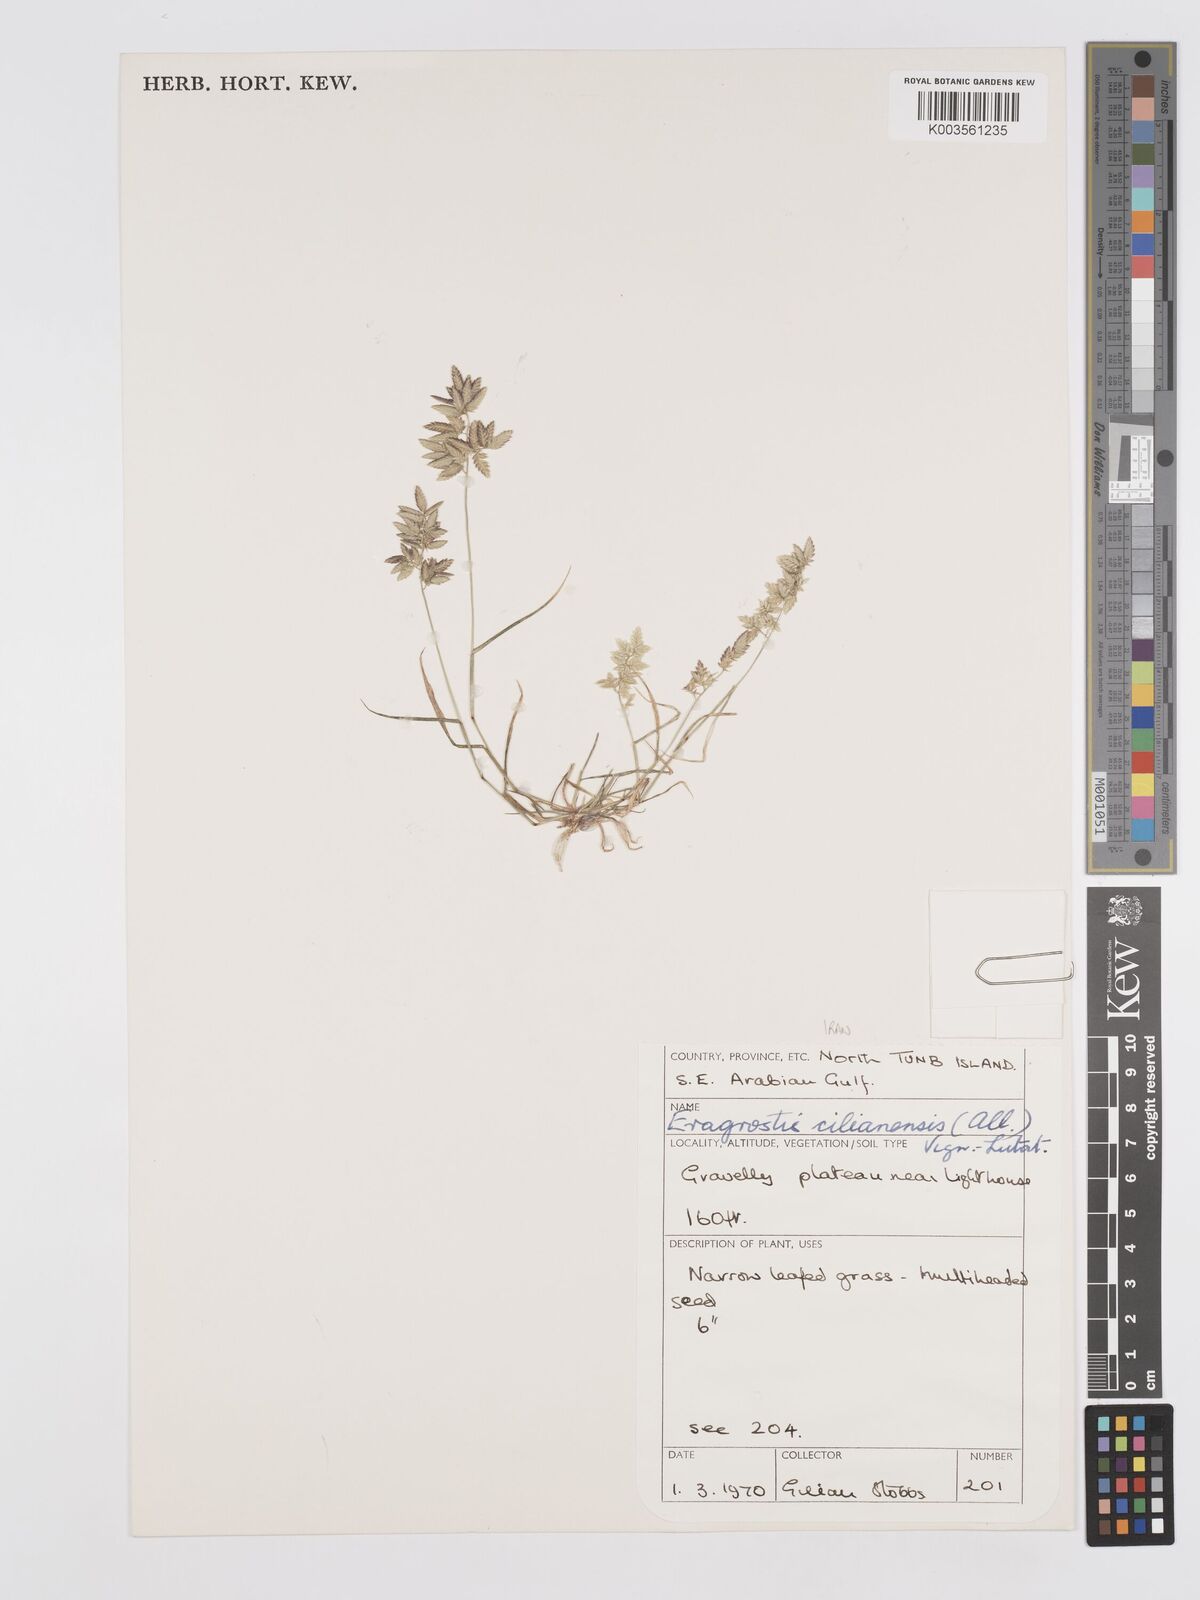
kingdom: Plantae
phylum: Tracheophyta
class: Liliopsida
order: Poales
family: Poaceae
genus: Eragrostis
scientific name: Eragrostis cilianensis
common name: Stinkgrass
